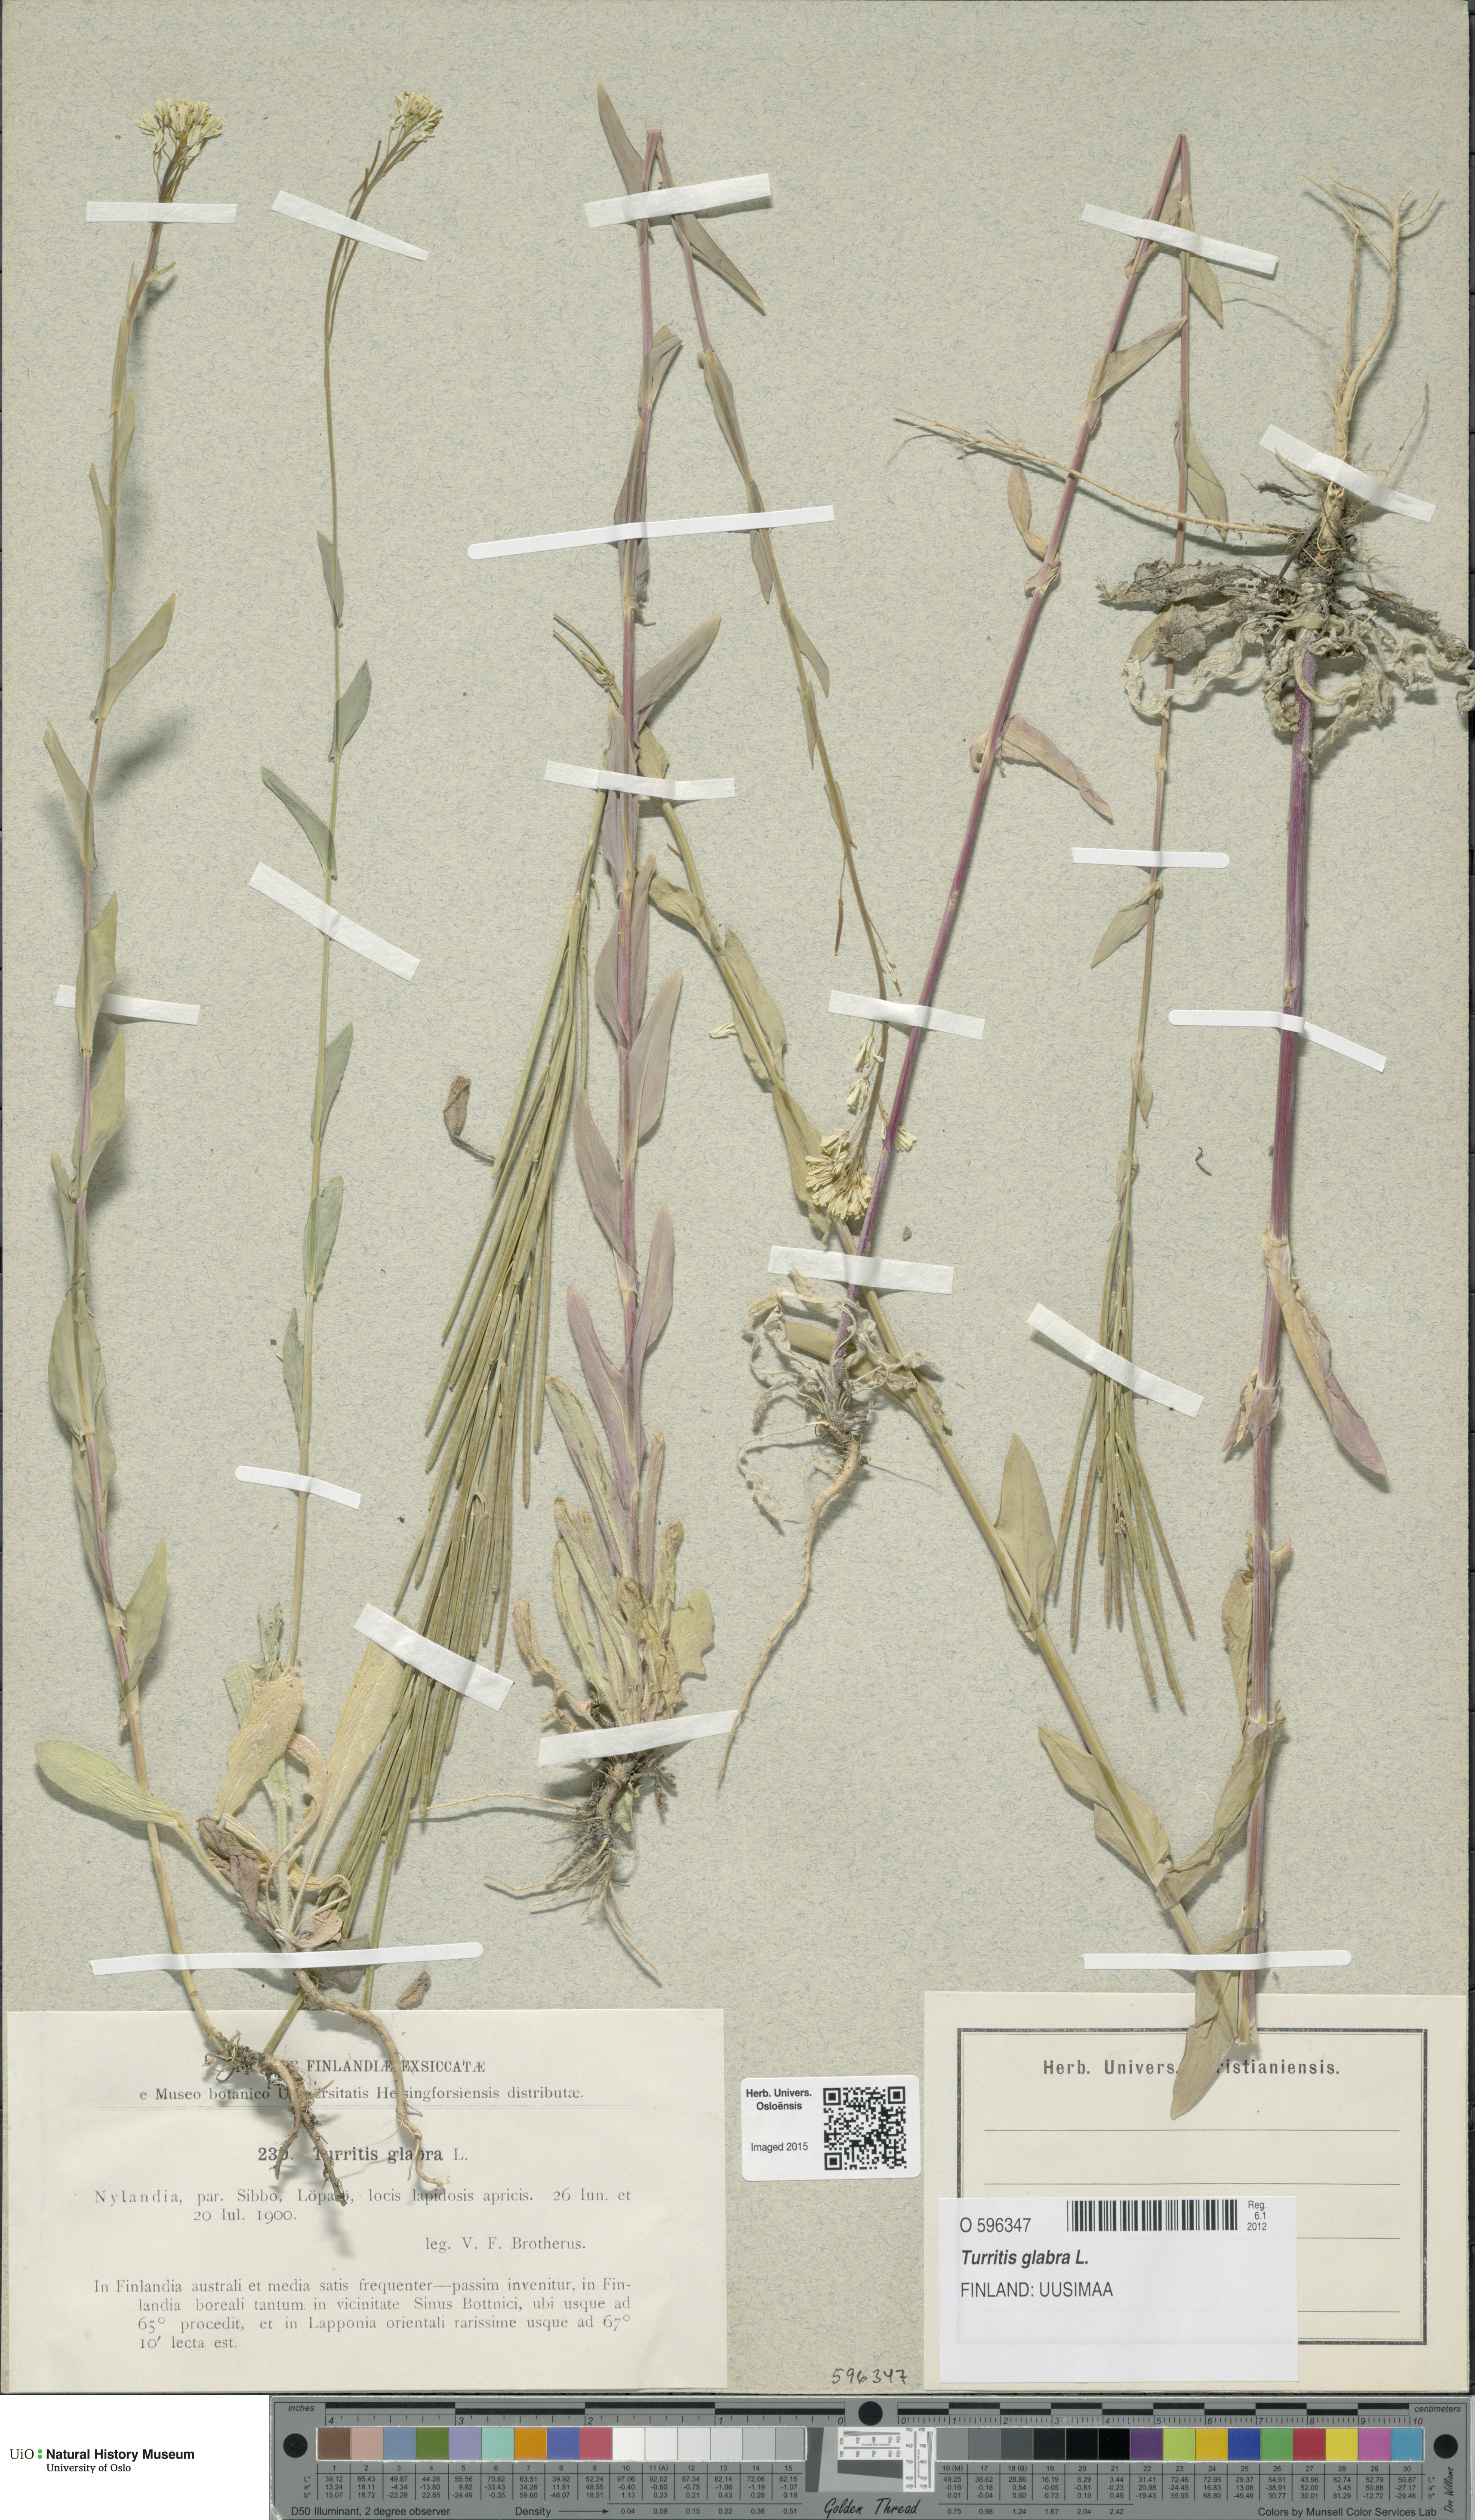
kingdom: Plantae
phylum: Tracheophyta
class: Magnoliopsida
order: Brassicales
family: Brassicaceae
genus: Turritis
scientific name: Turritis glabra
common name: Tower rockcress
